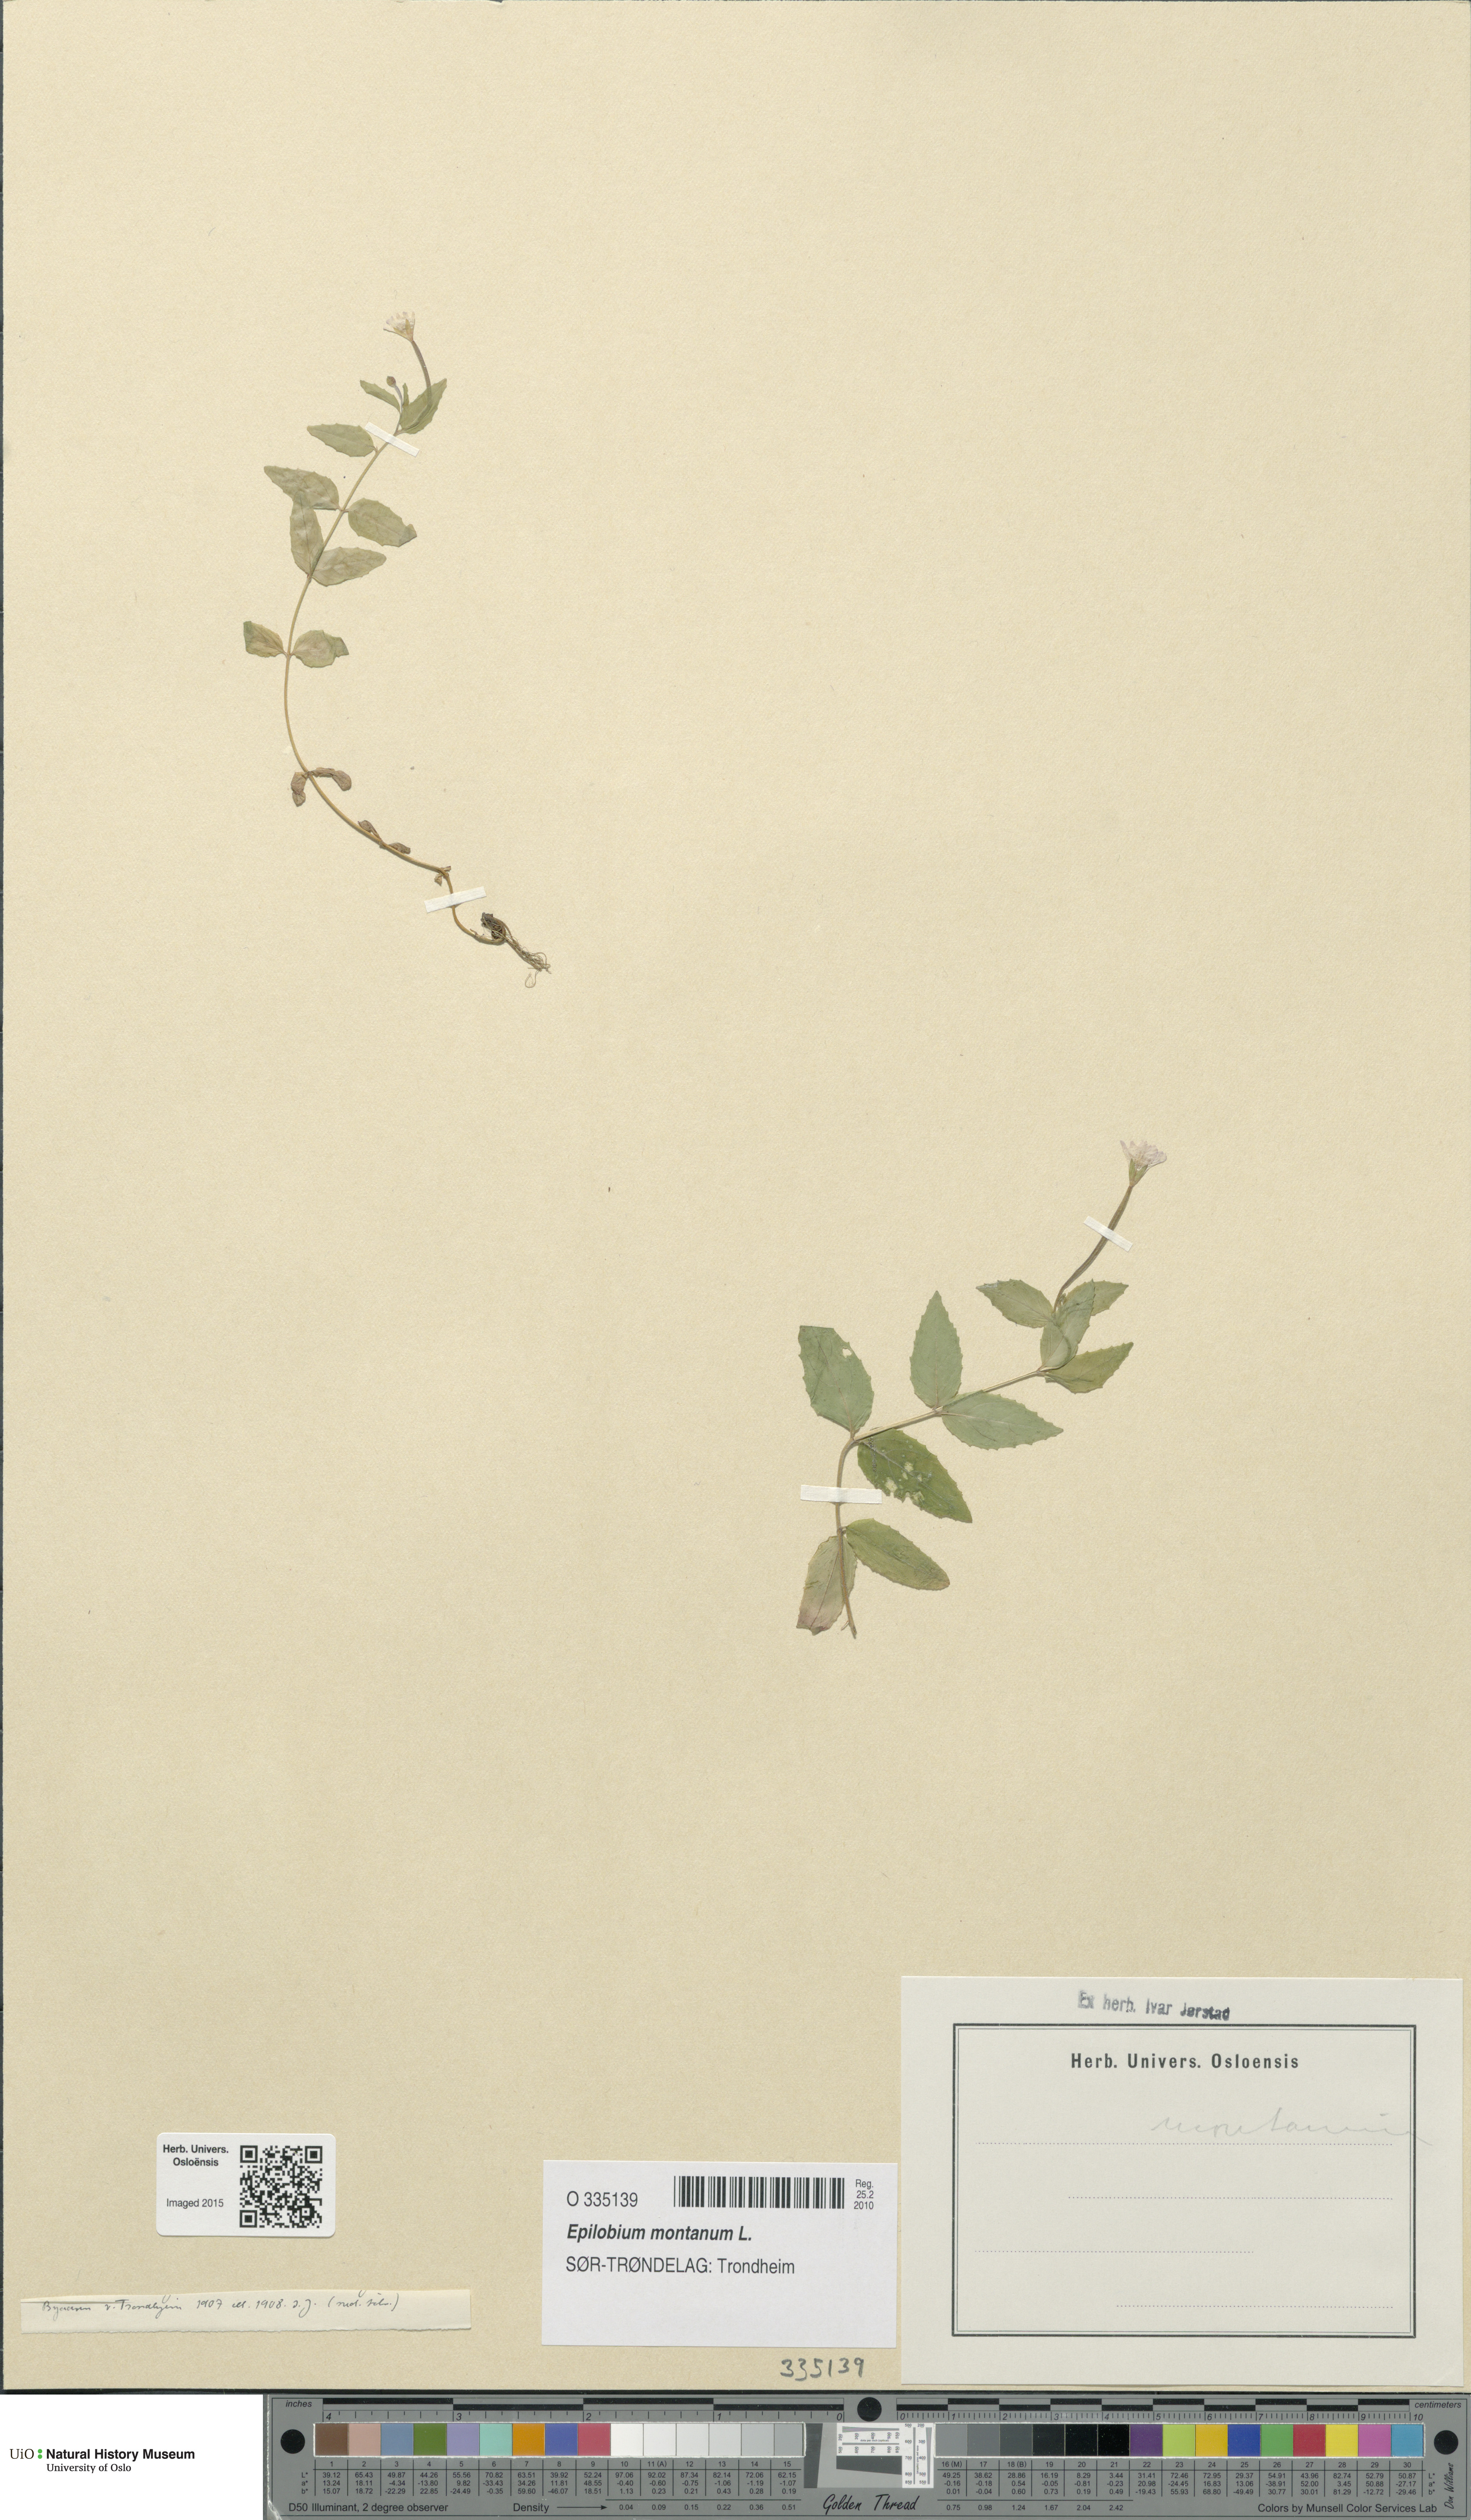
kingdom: Plantae
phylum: Tracheophyta
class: Magnoliopsida
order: Myrtales
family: Onagraceae
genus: Epilobium
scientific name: Epilobium montanum
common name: Broad-leaved willowherb
